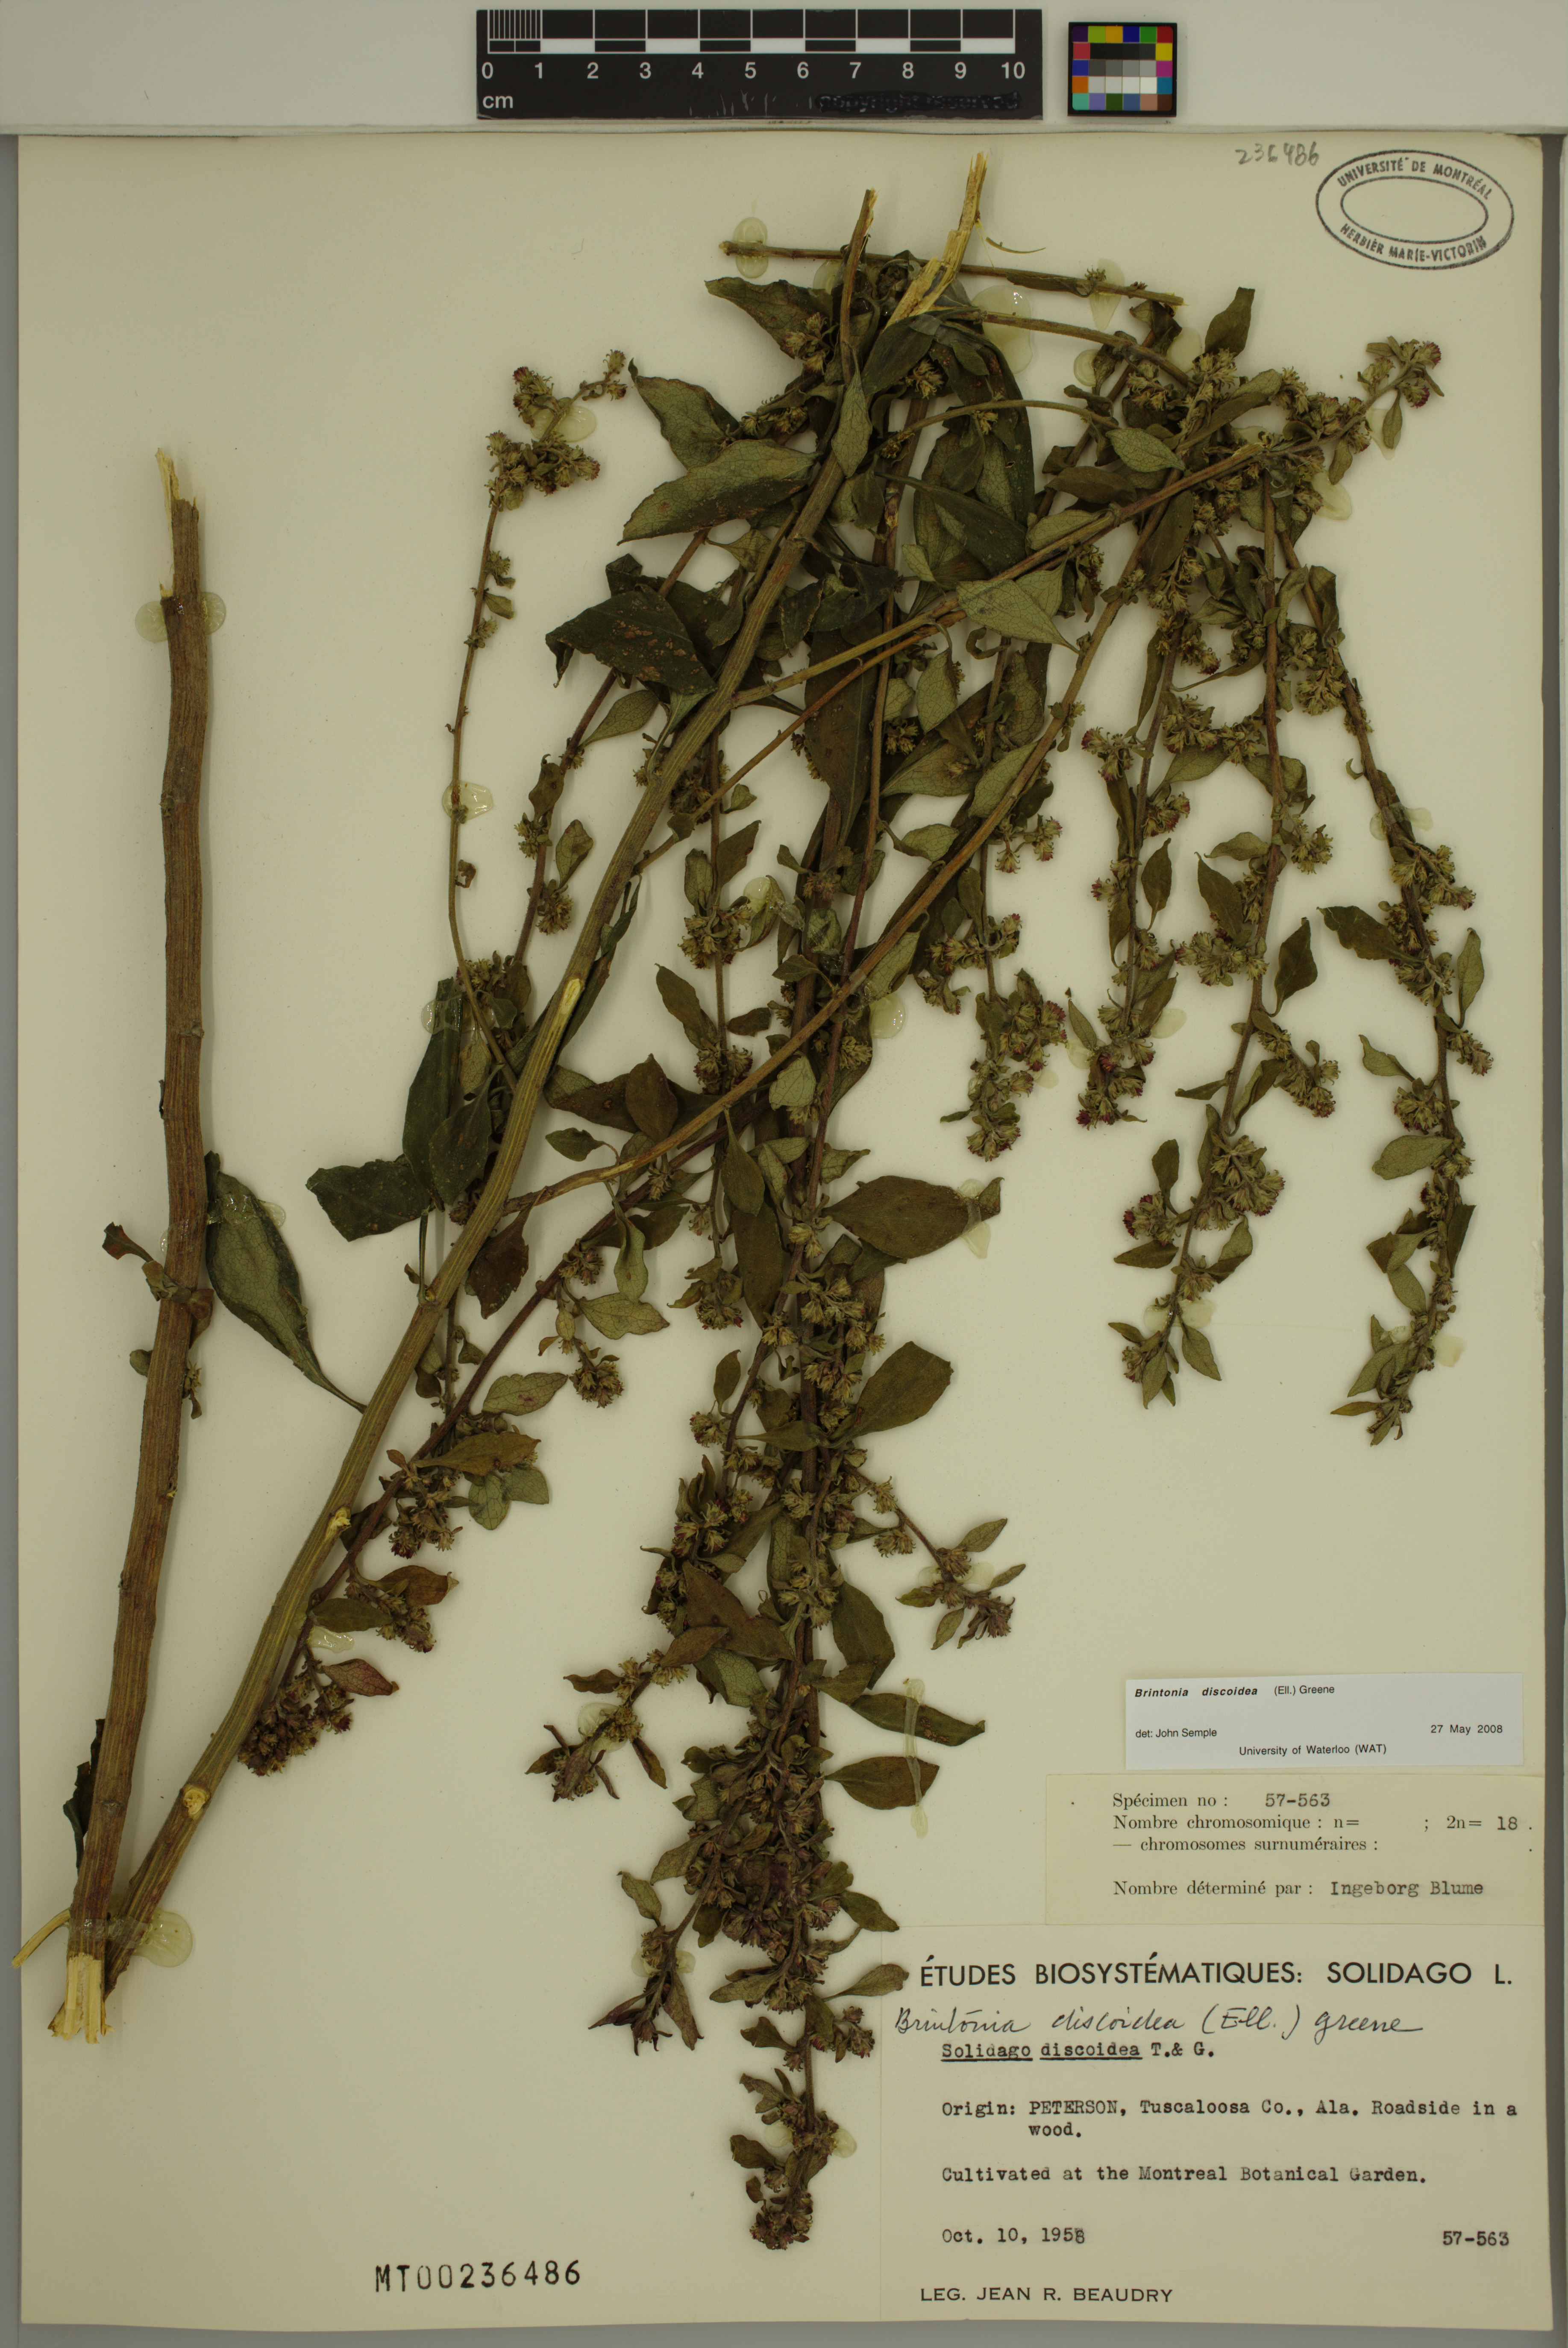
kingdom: Plantae
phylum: Tracheophyta
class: Magnoliopsida
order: Asterales
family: Asteraceae
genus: Solidago
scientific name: Solidago discoidea
